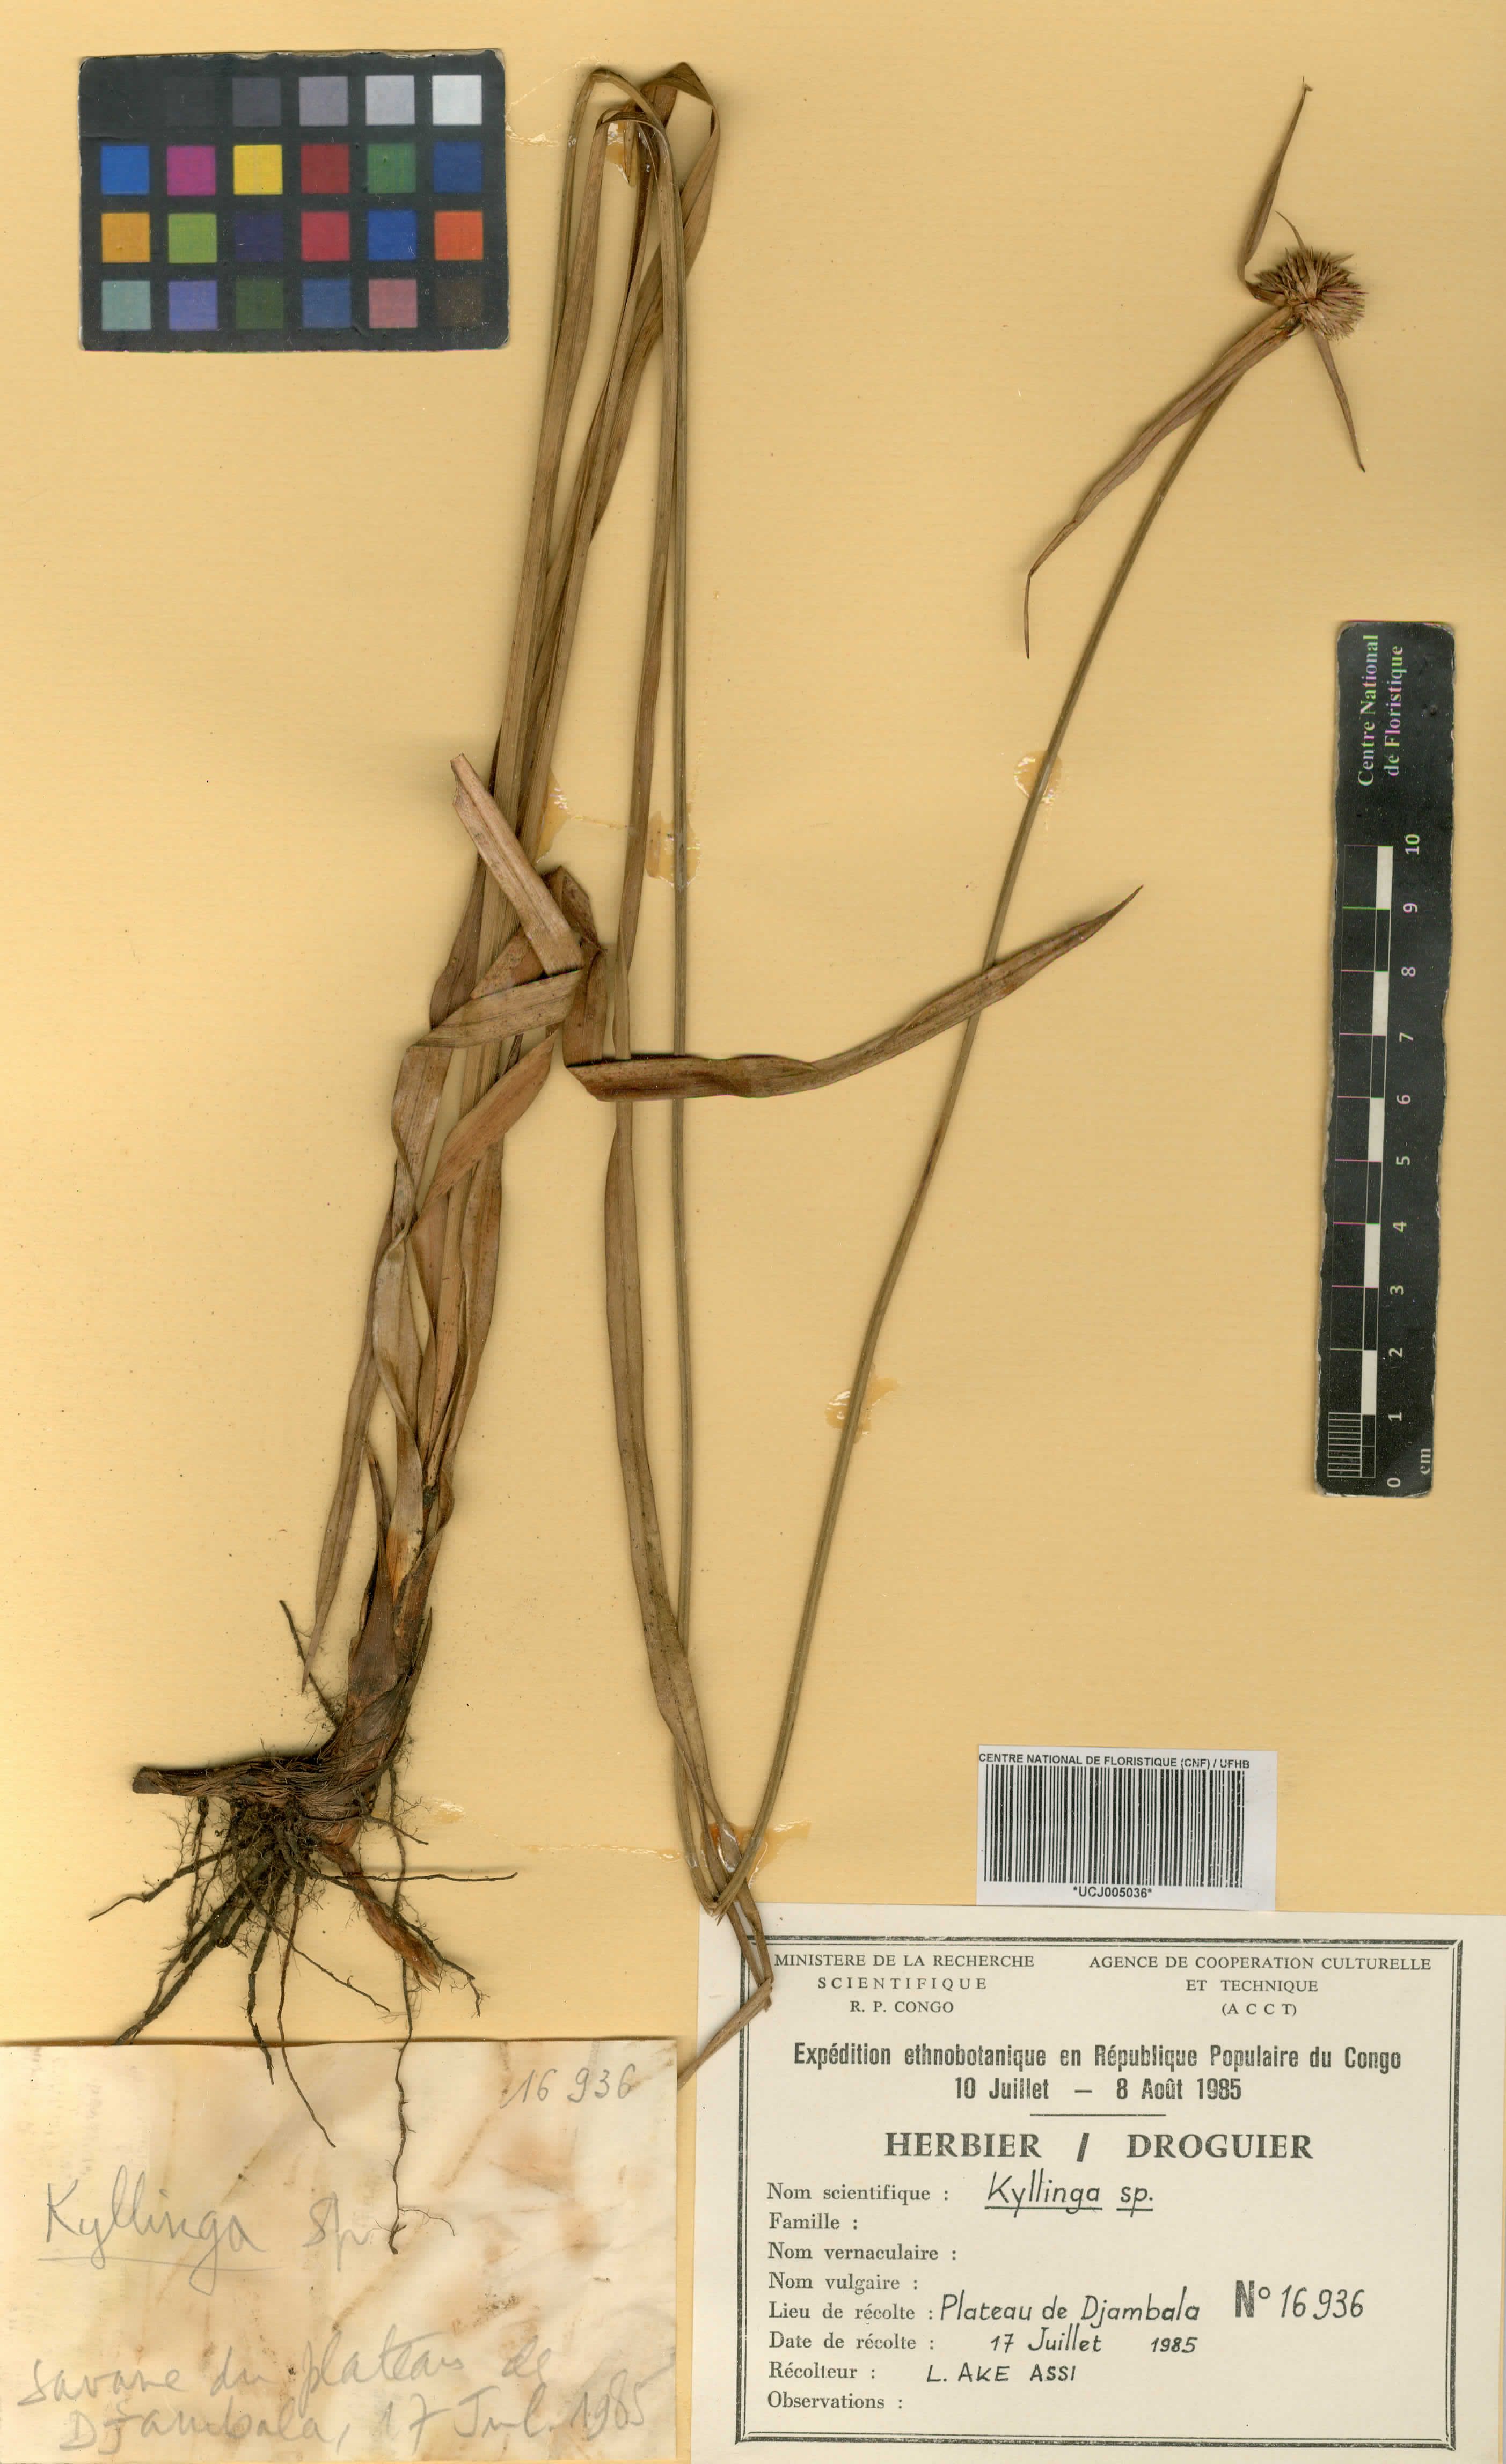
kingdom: Plantae
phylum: Tracheophyta
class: Liliopsida
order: Poales
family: Cyperaceae
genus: Cyperus
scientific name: Cyperus
